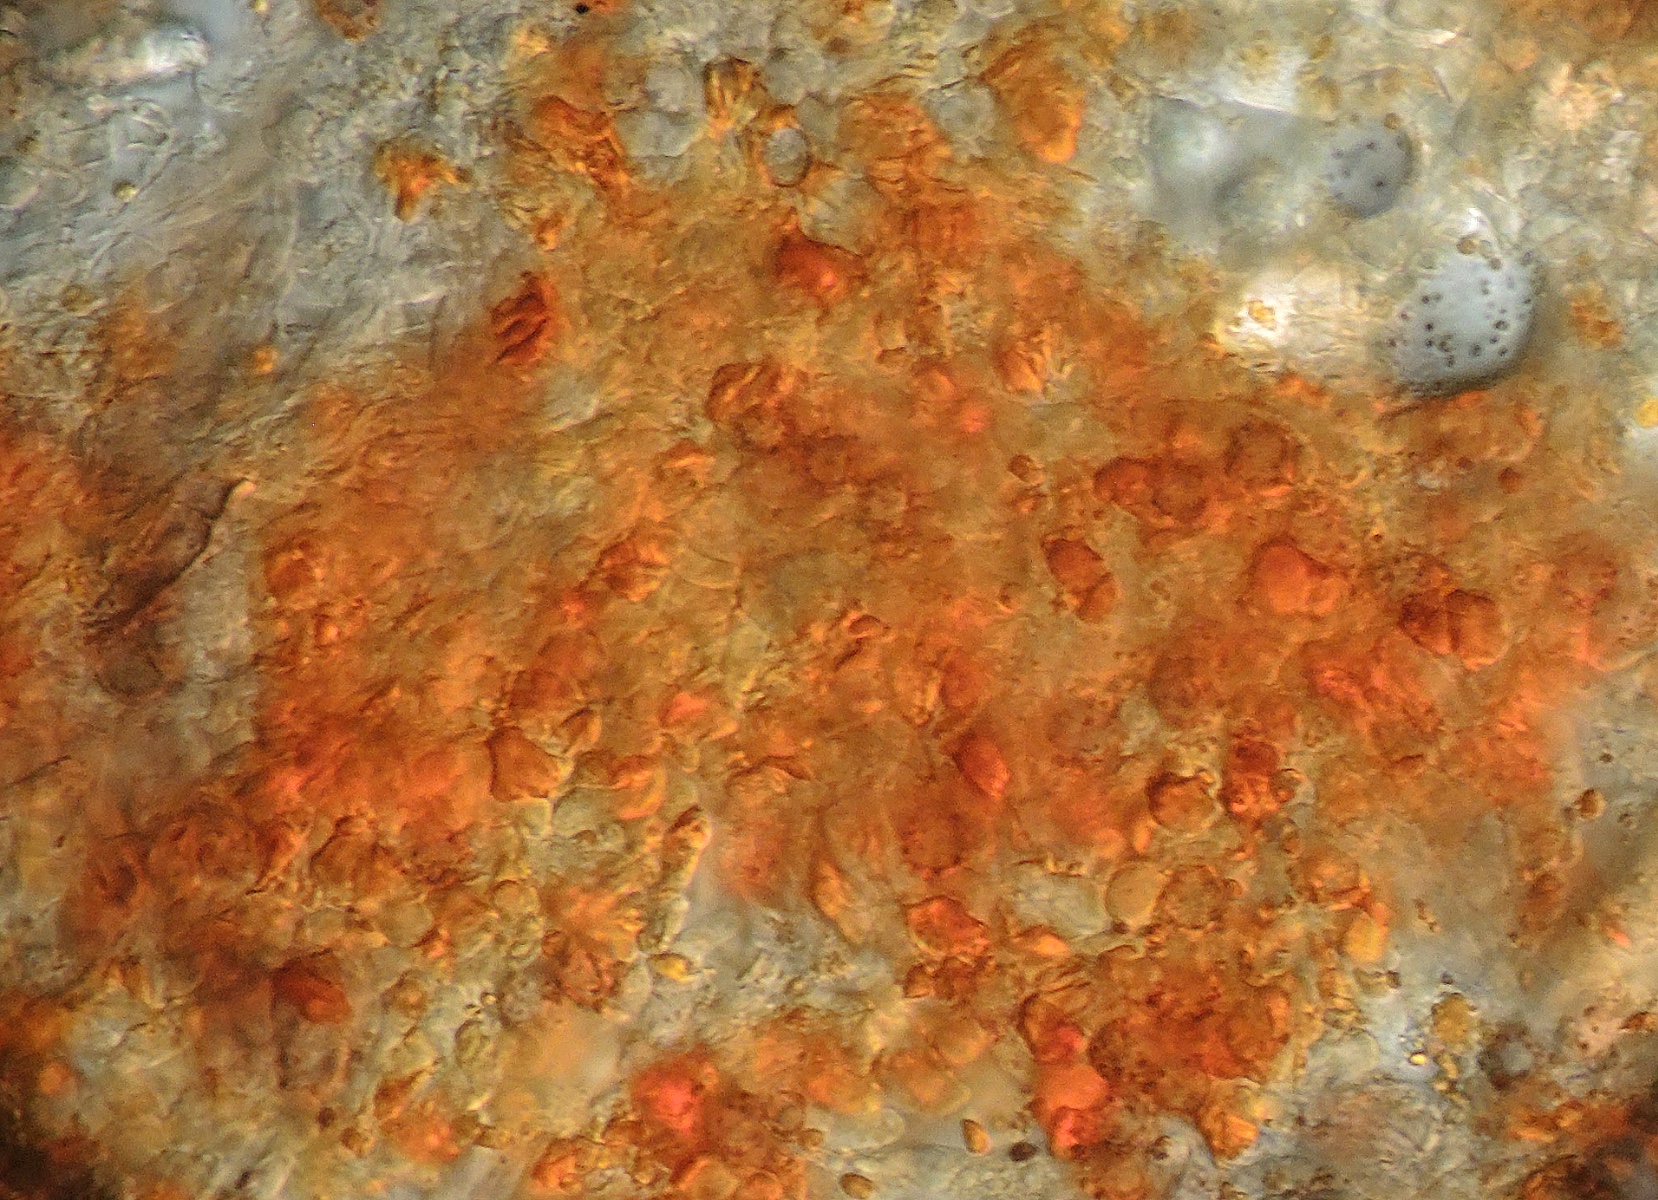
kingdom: Fungi
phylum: Basidiomycota
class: Agaricomycetes
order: Thelephorales
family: Thelephoraceae
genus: Tomentella
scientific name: Tomentella lateritia
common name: teglrød frynsehinde
